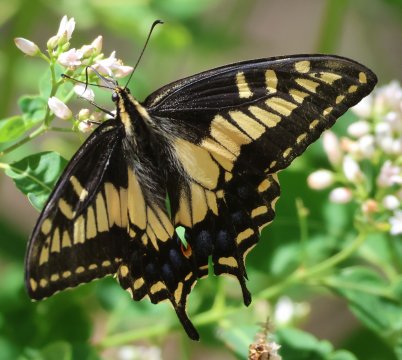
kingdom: Animalia
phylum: Arthropoda
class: Insecta
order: Lepidoptera
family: Papilionidae
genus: Papilio
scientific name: Papilio zelicaon
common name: Anise Swallowtail
